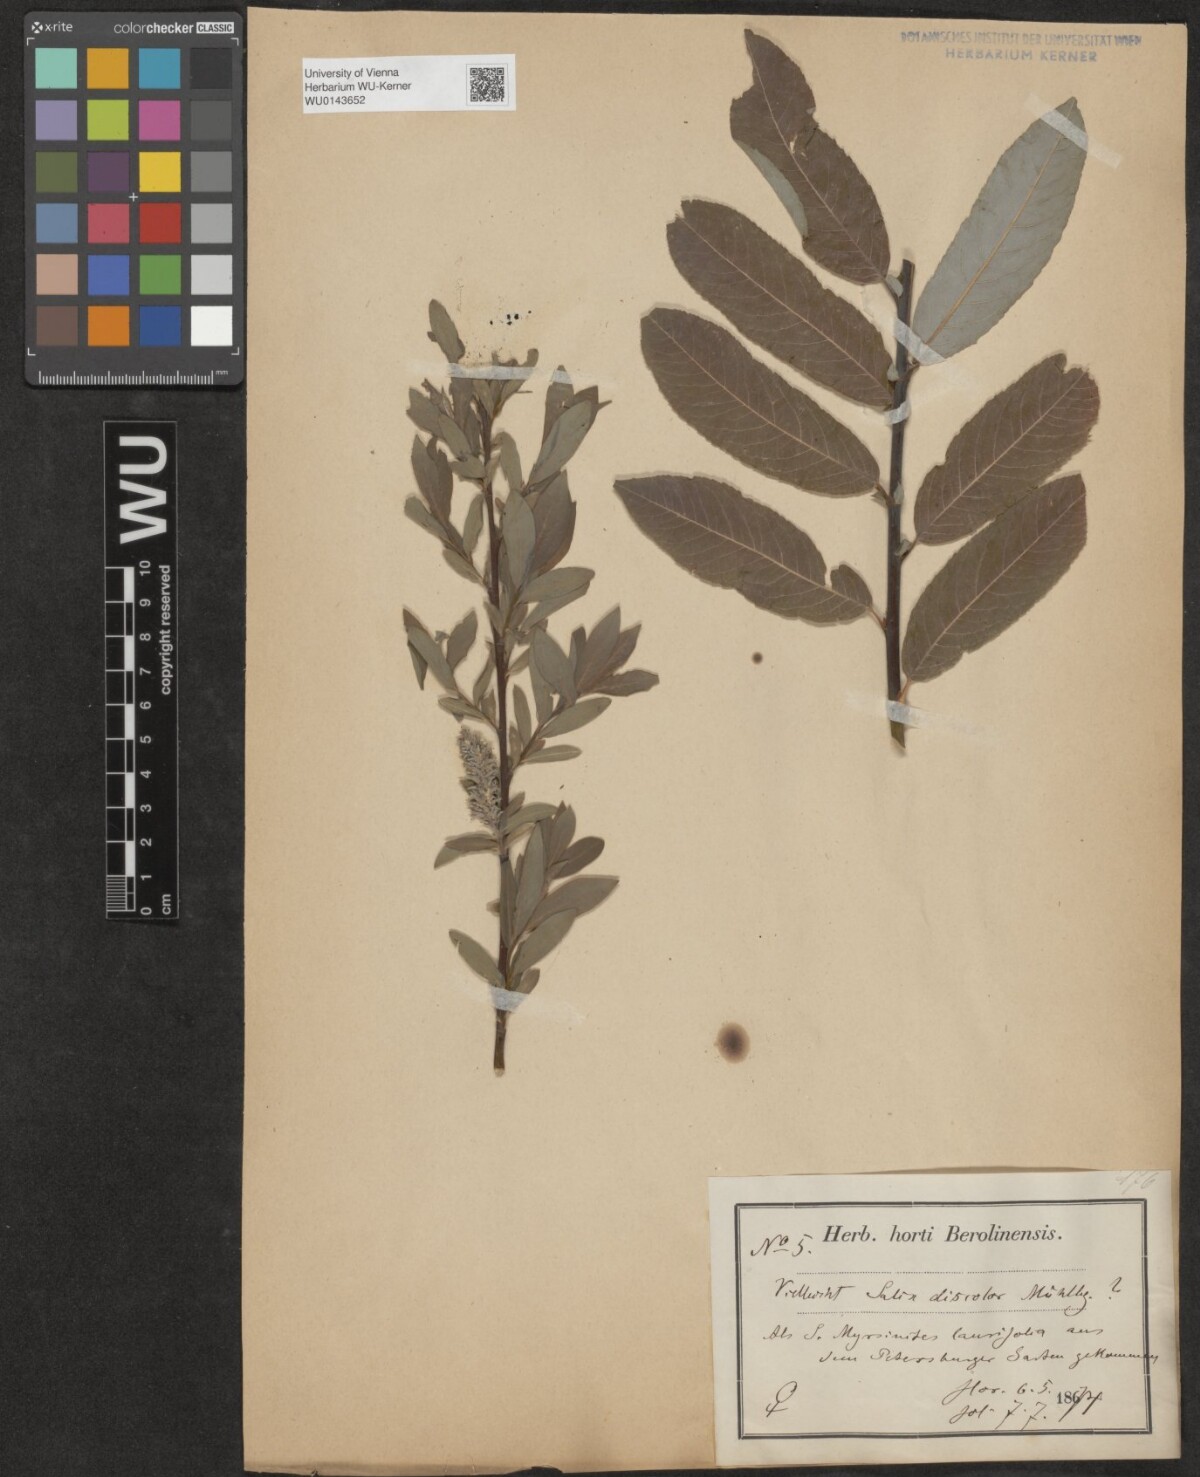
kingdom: Plantae
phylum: Tracheophyta
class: Magnoliopsida
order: Malpighiales
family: Salicaceae
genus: Salix
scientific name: Salix
